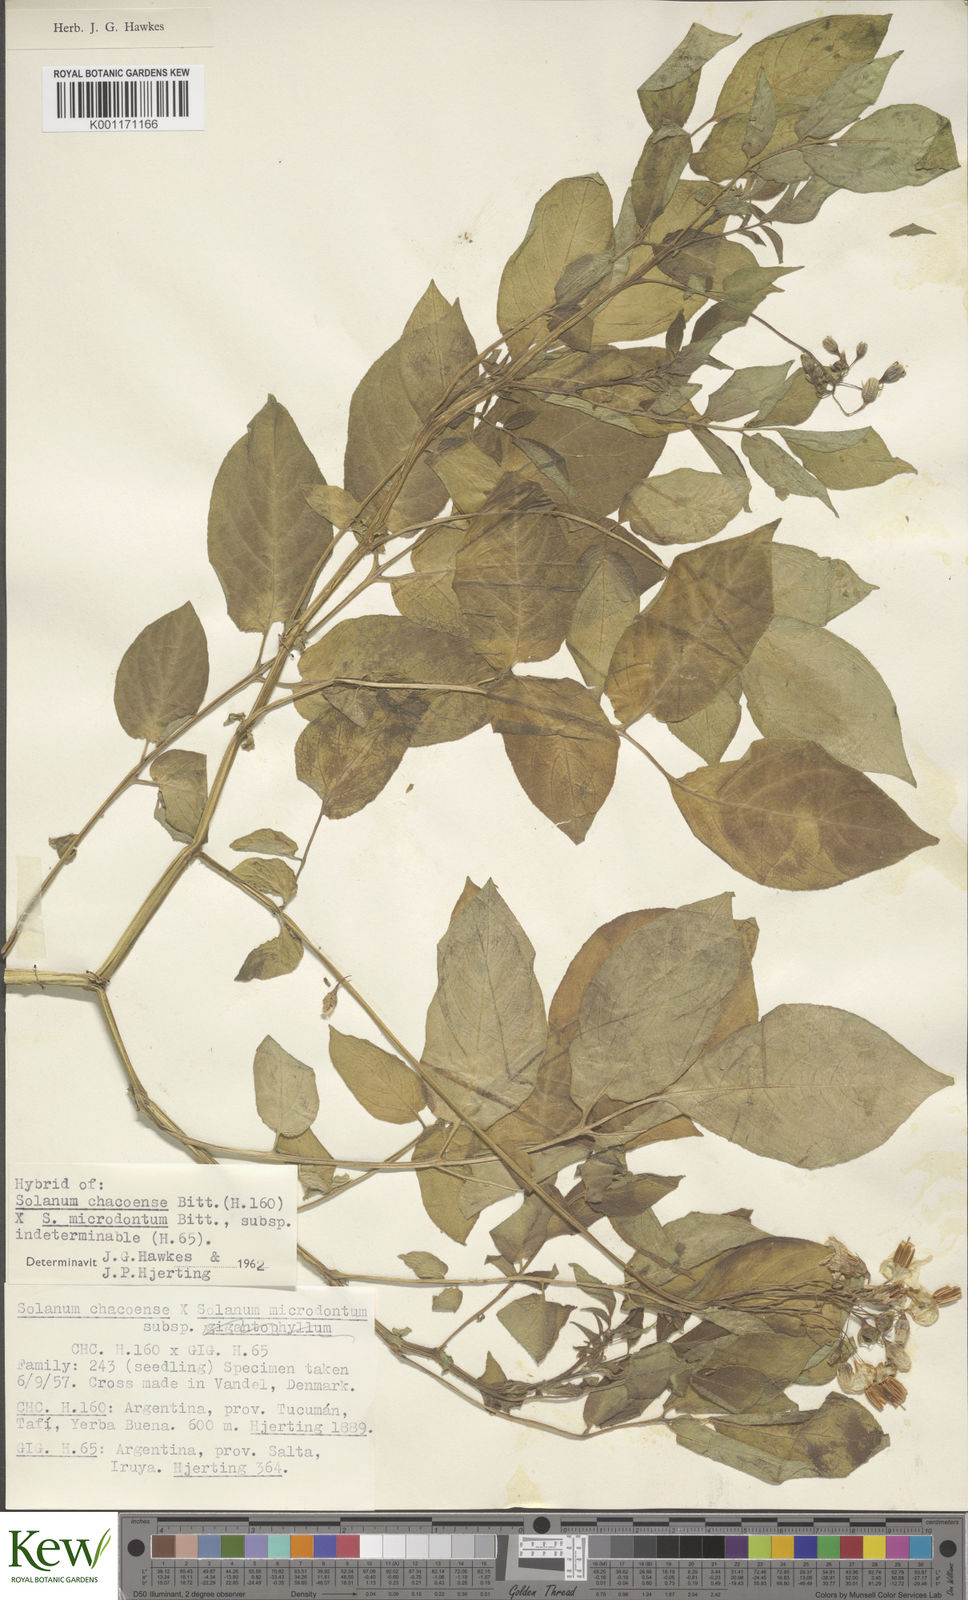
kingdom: Plantae
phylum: Tracheophyta
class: Magnoliopsida
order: Solanales
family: Solanaceae
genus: Solanum
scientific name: Solanum microdontum
